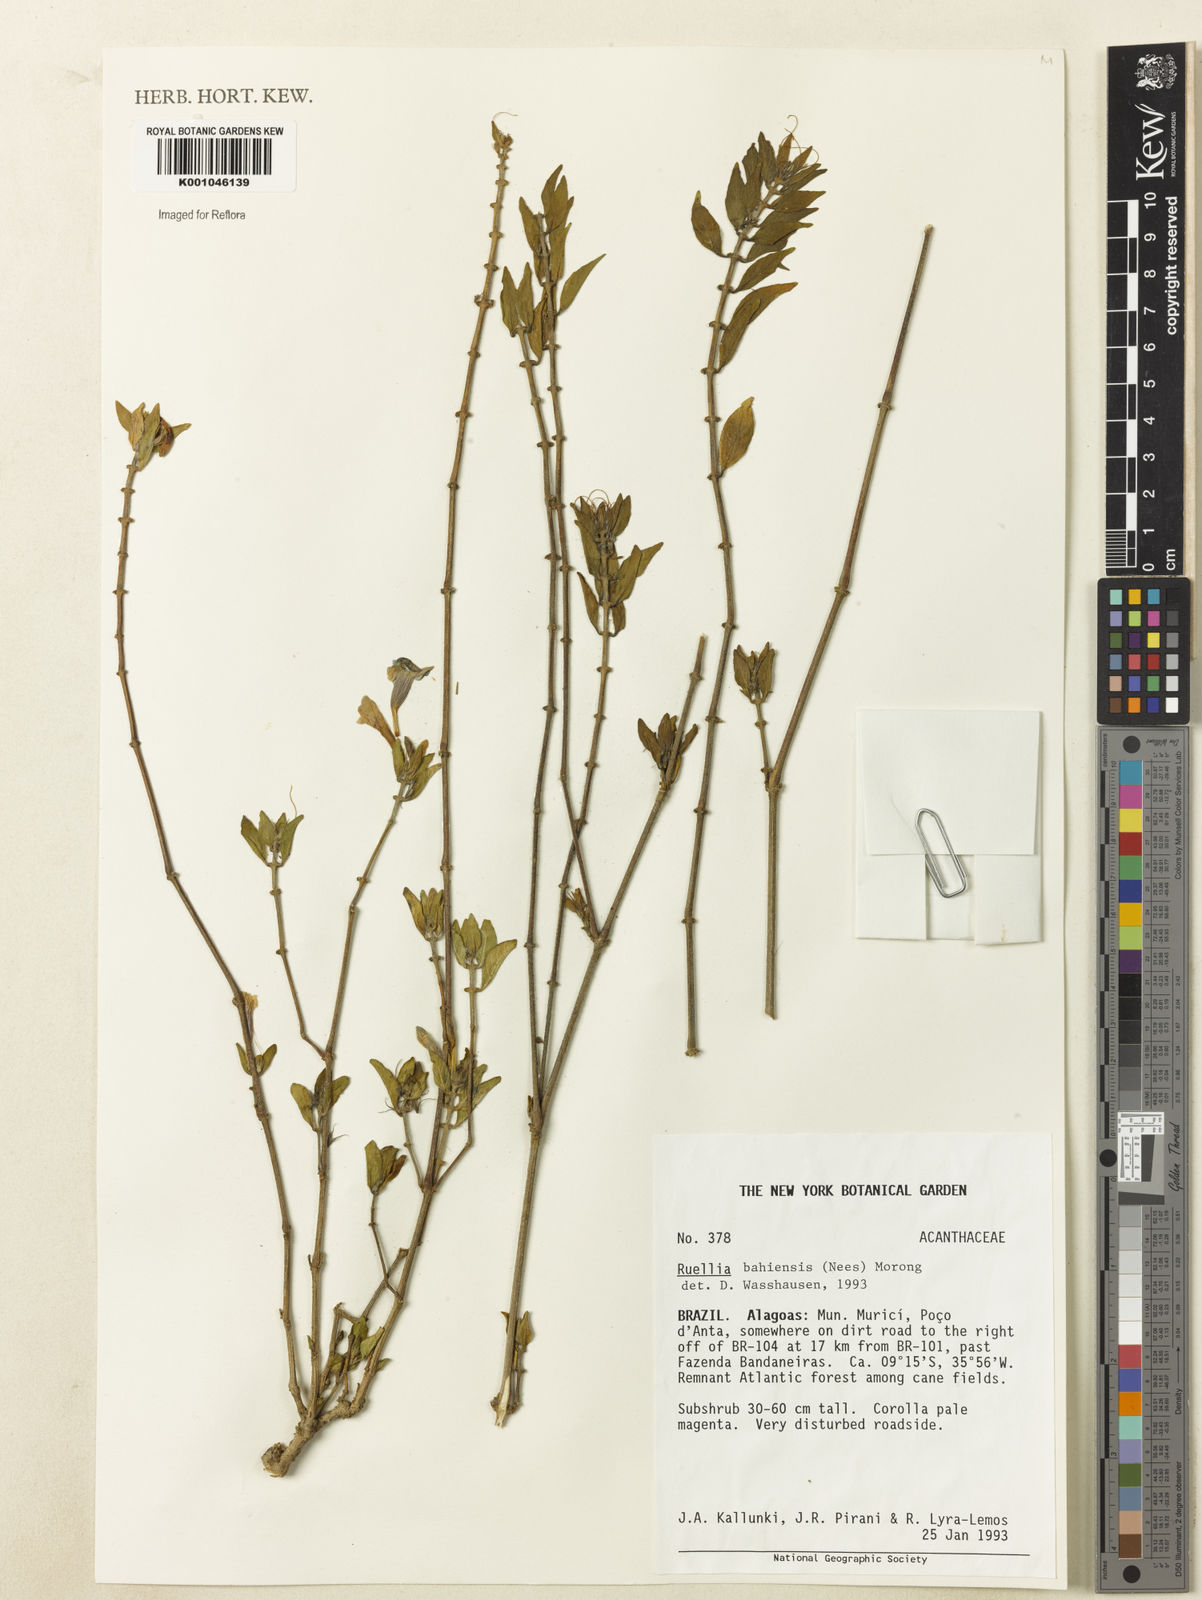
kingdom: Plantae
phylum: Tracheophyta
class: Magnoliopsida
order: Lamiales
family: Acanthaceae
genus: Ruellia
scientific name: Ruellia bahiensis
